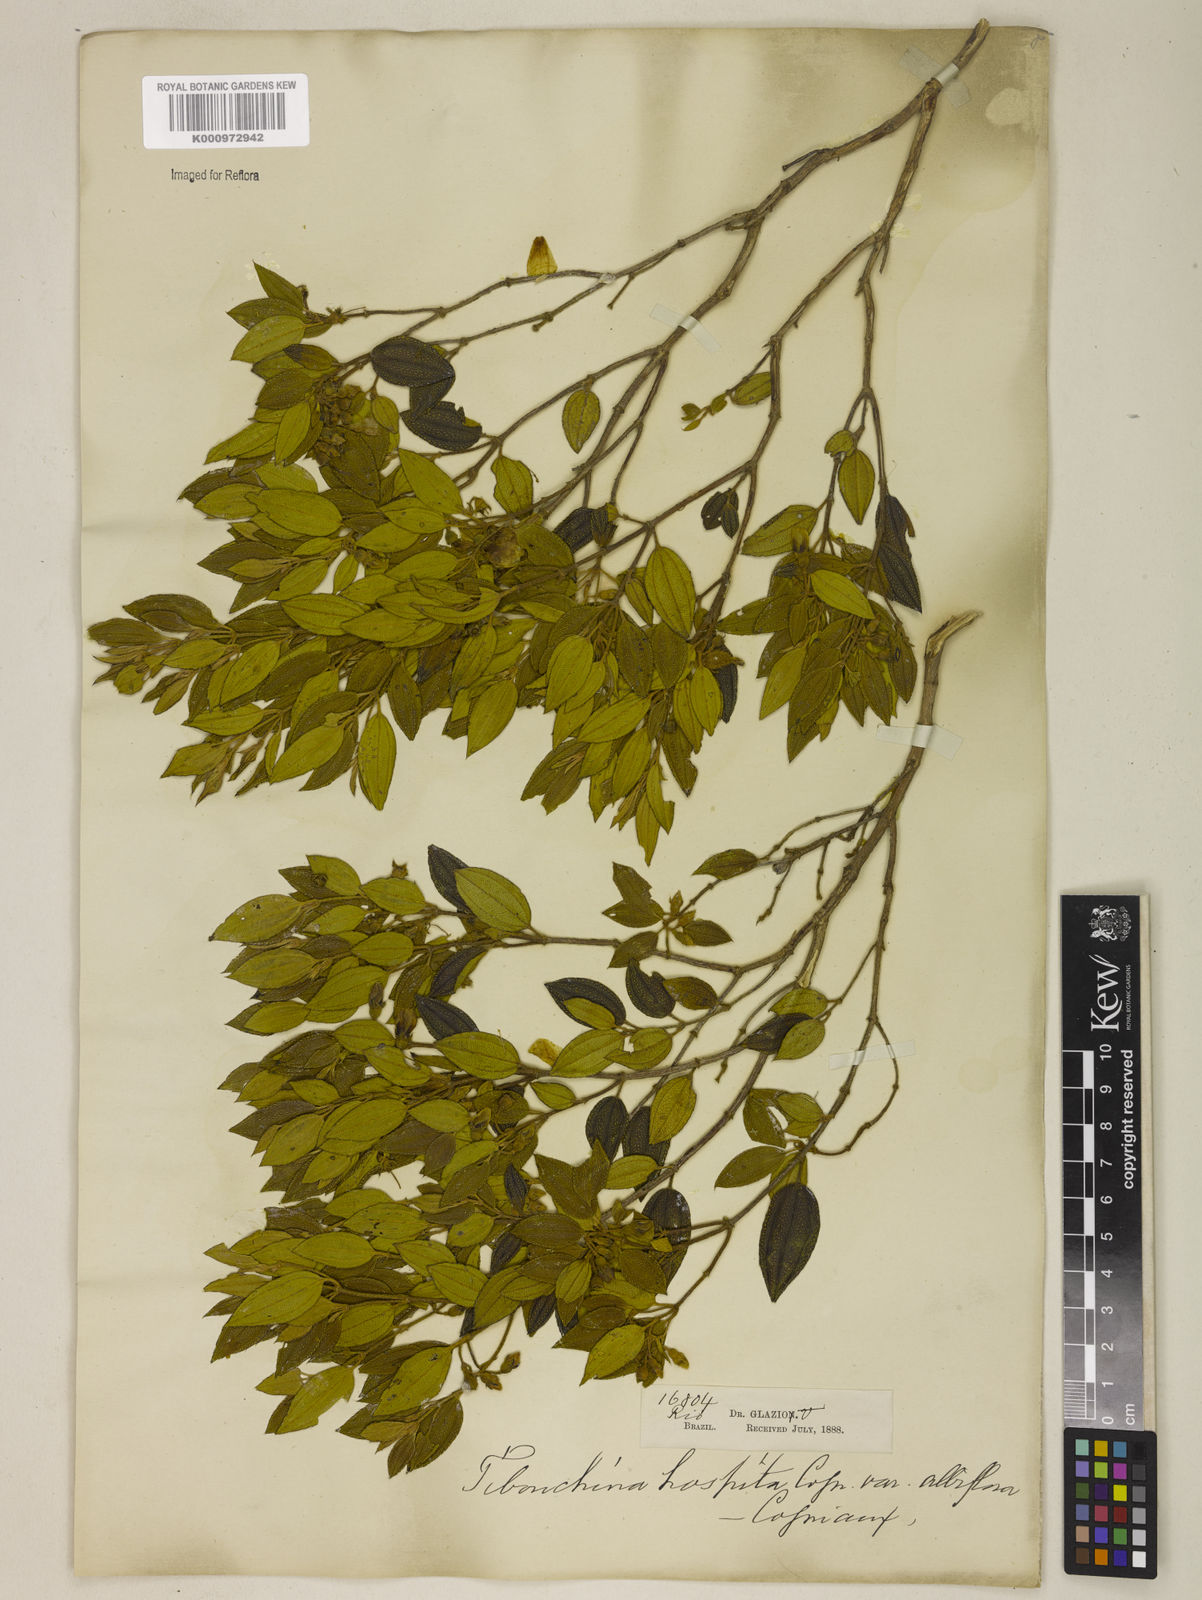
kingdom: Plantae
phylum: Tracheophyta
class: Magnoliopsida
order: Myrtales
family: Melastomataceae
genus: Pleroma
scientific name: Pleroma hospitum
